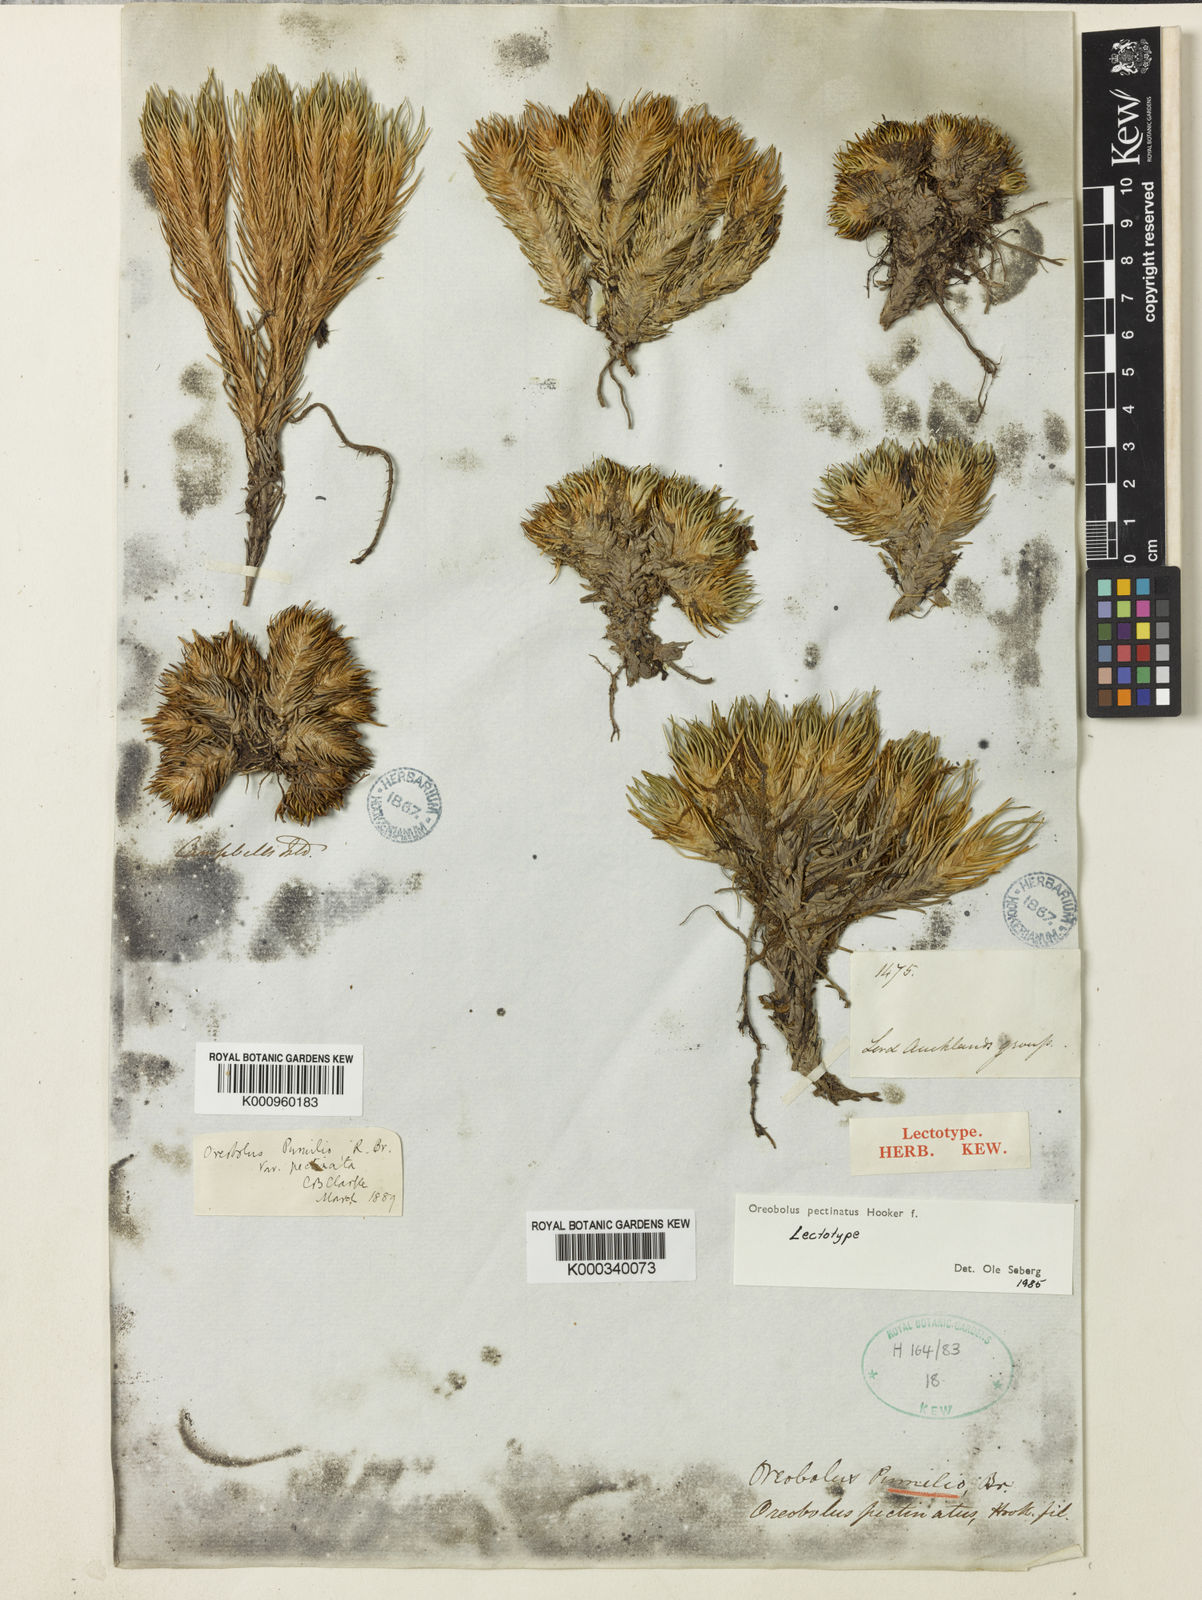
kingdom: Plantae
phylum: Tracheophyta
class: Liliopsida
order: Poales
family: Cyperaceae
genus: Oreobolus
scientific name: Oreobolus pectinatus
